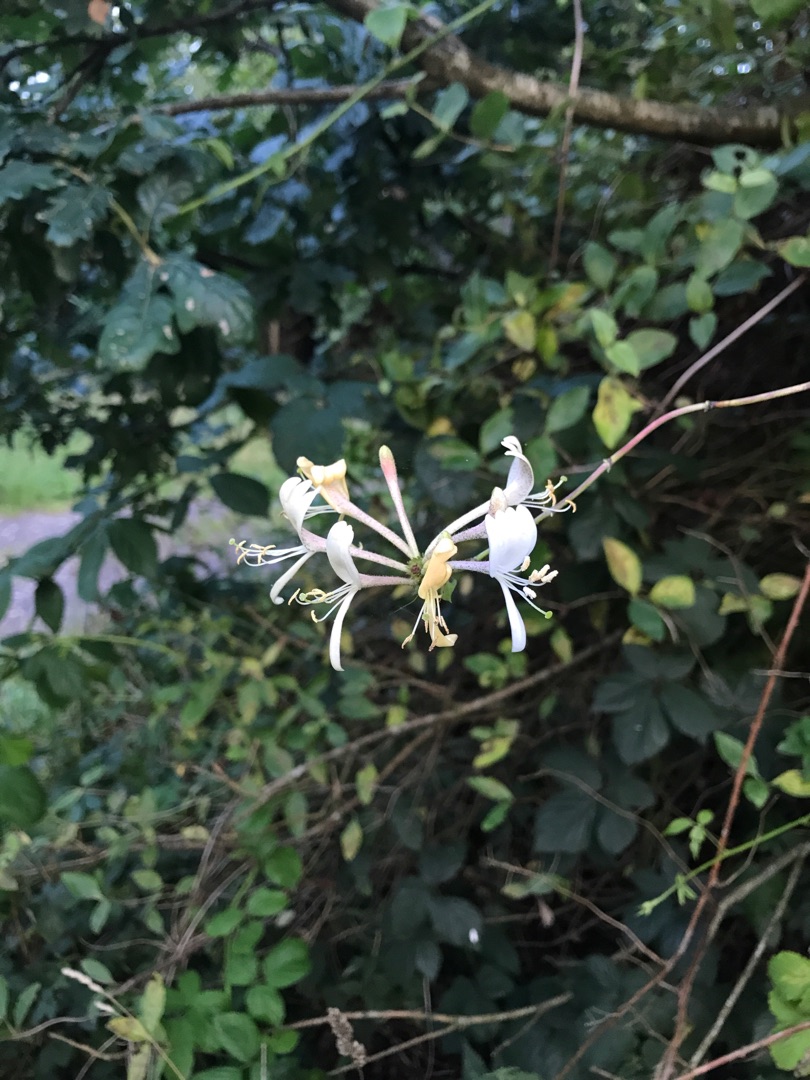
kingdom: Plantae
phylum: Tracheophyta
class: Magnoliopsida
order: Dipsacales
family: Caprifoliaceae
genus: Lonicera
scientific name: Lonicera periclymenum
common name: Almindelig gedeblad
